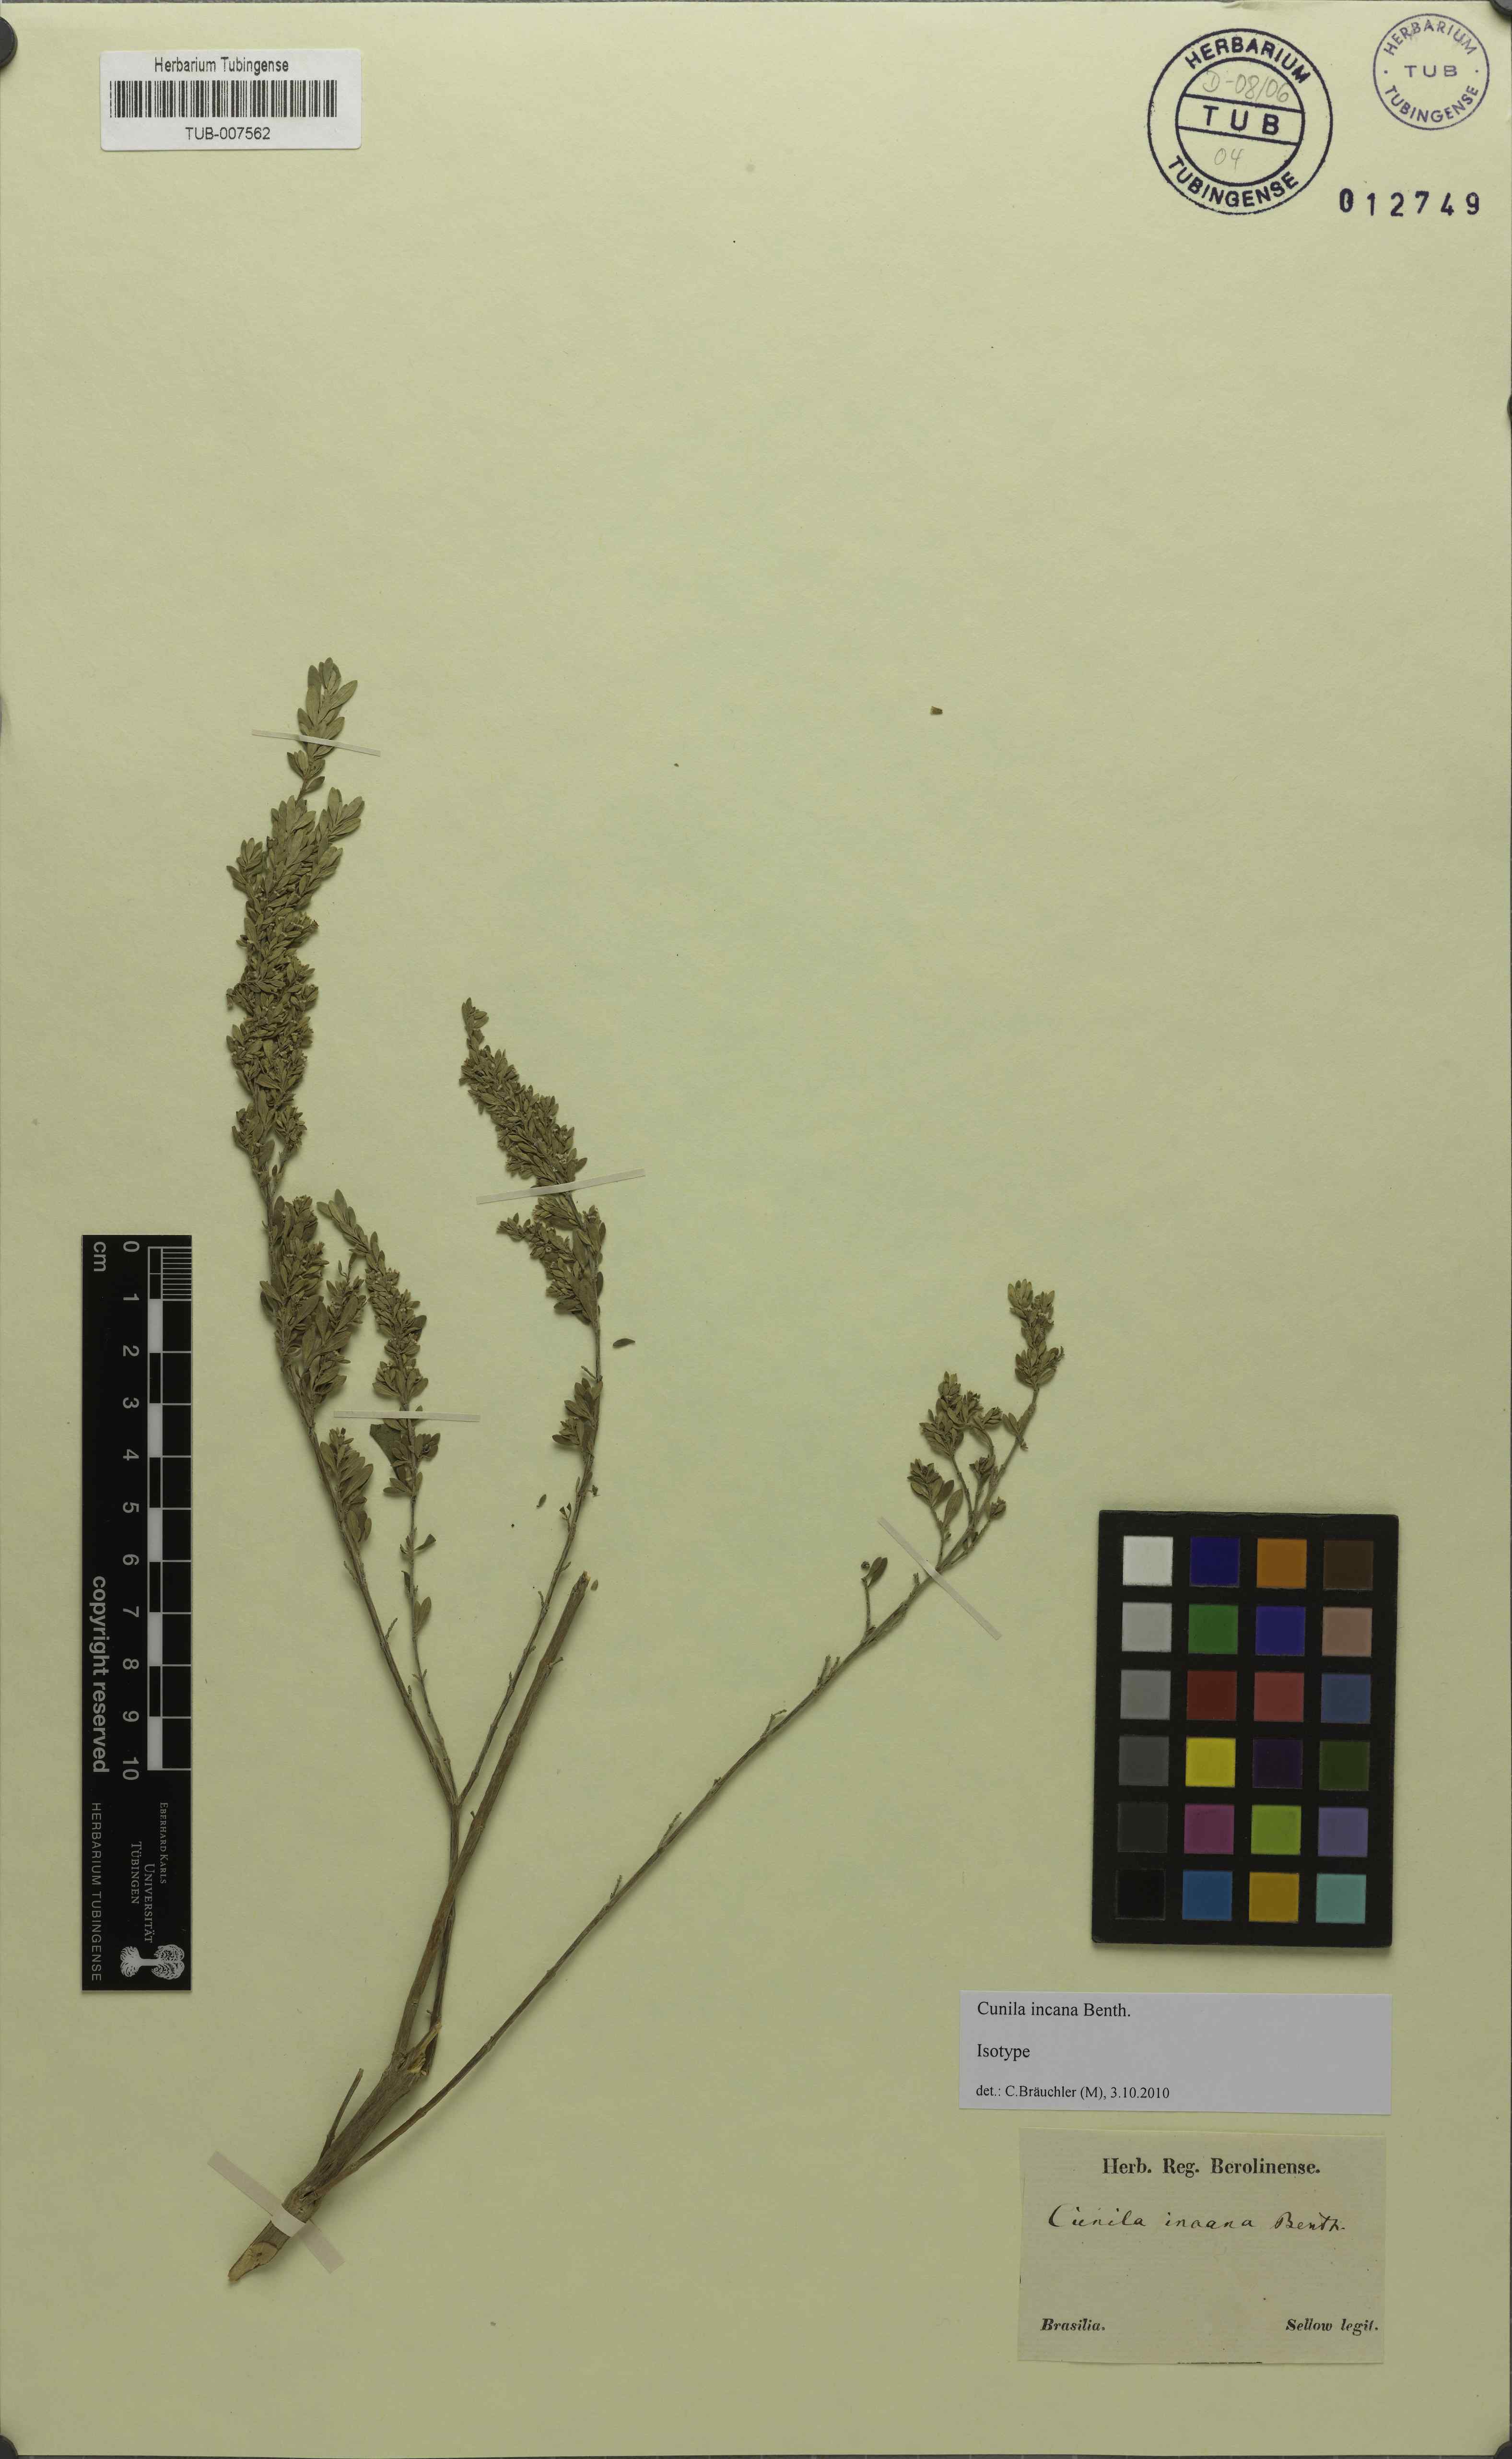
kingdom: Plantae
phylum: Tracheophyta
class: Magnoliopsida
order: Lamiales
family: Lamiaceae
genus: Cunila
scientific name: Cunila incana
